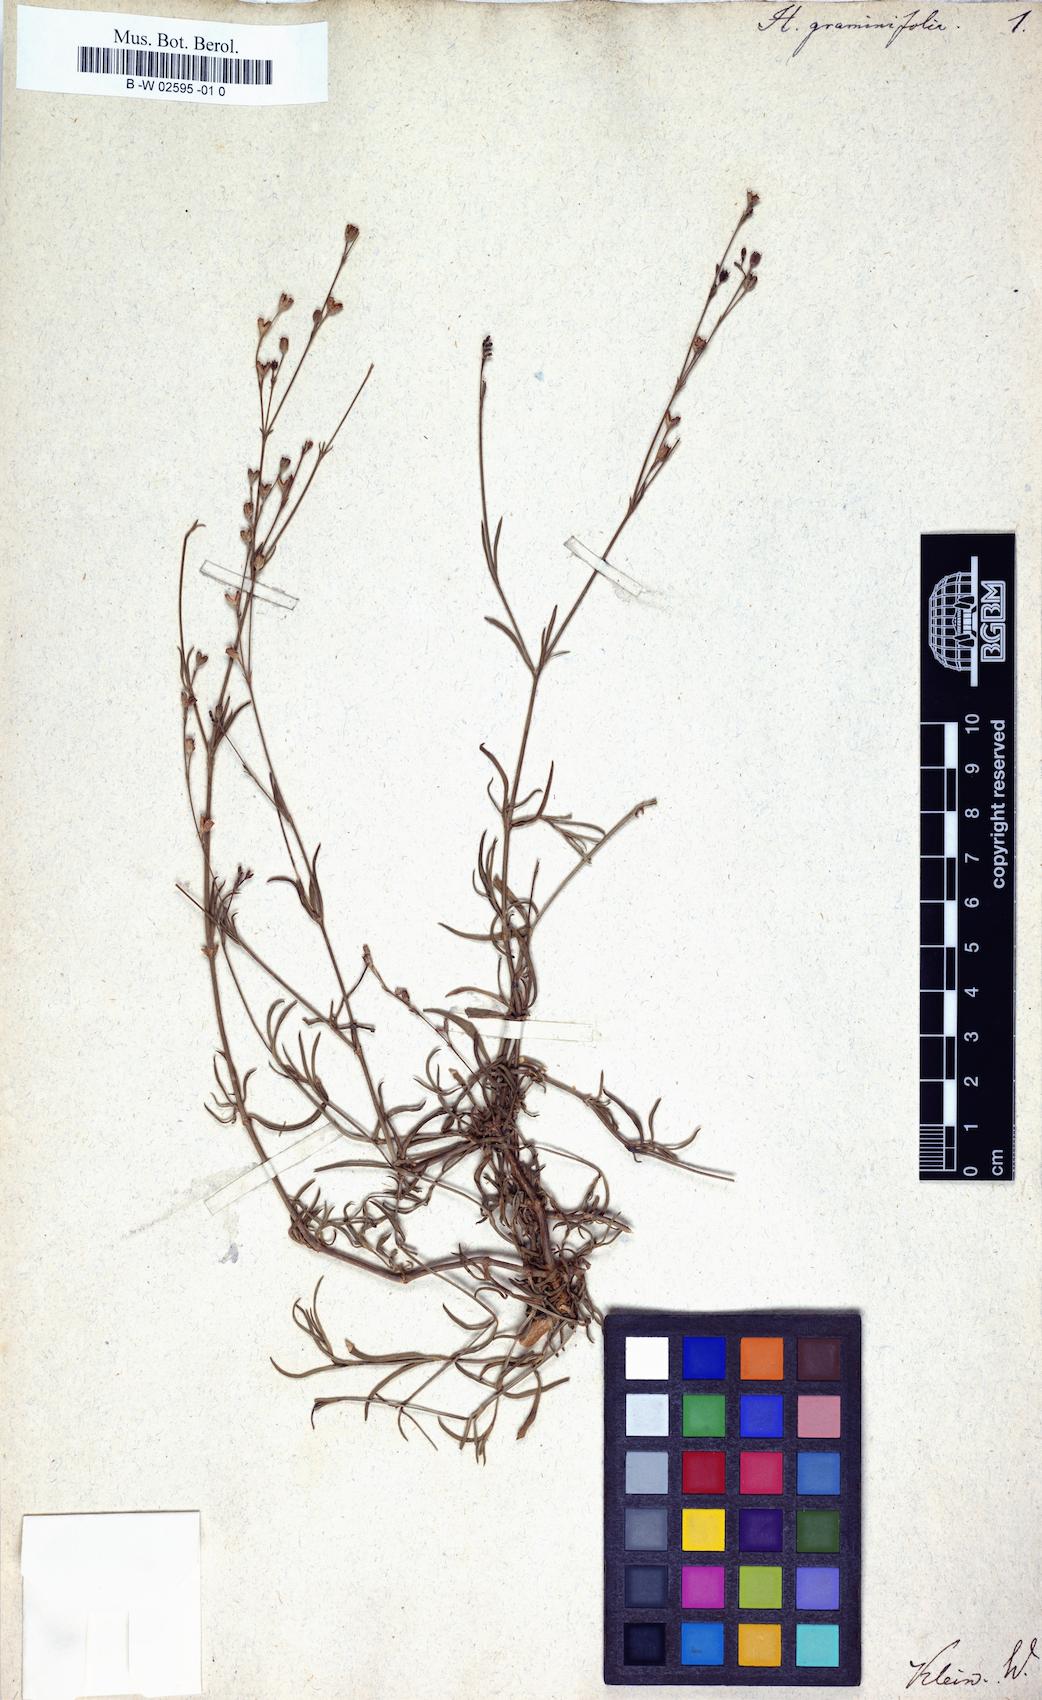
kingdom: Plantae
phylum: Tracheophyta
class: Magnoliopsida
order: Gentianales
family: Rubiaceae
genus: Oldenlandia
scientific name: Oldenlandia stricta
